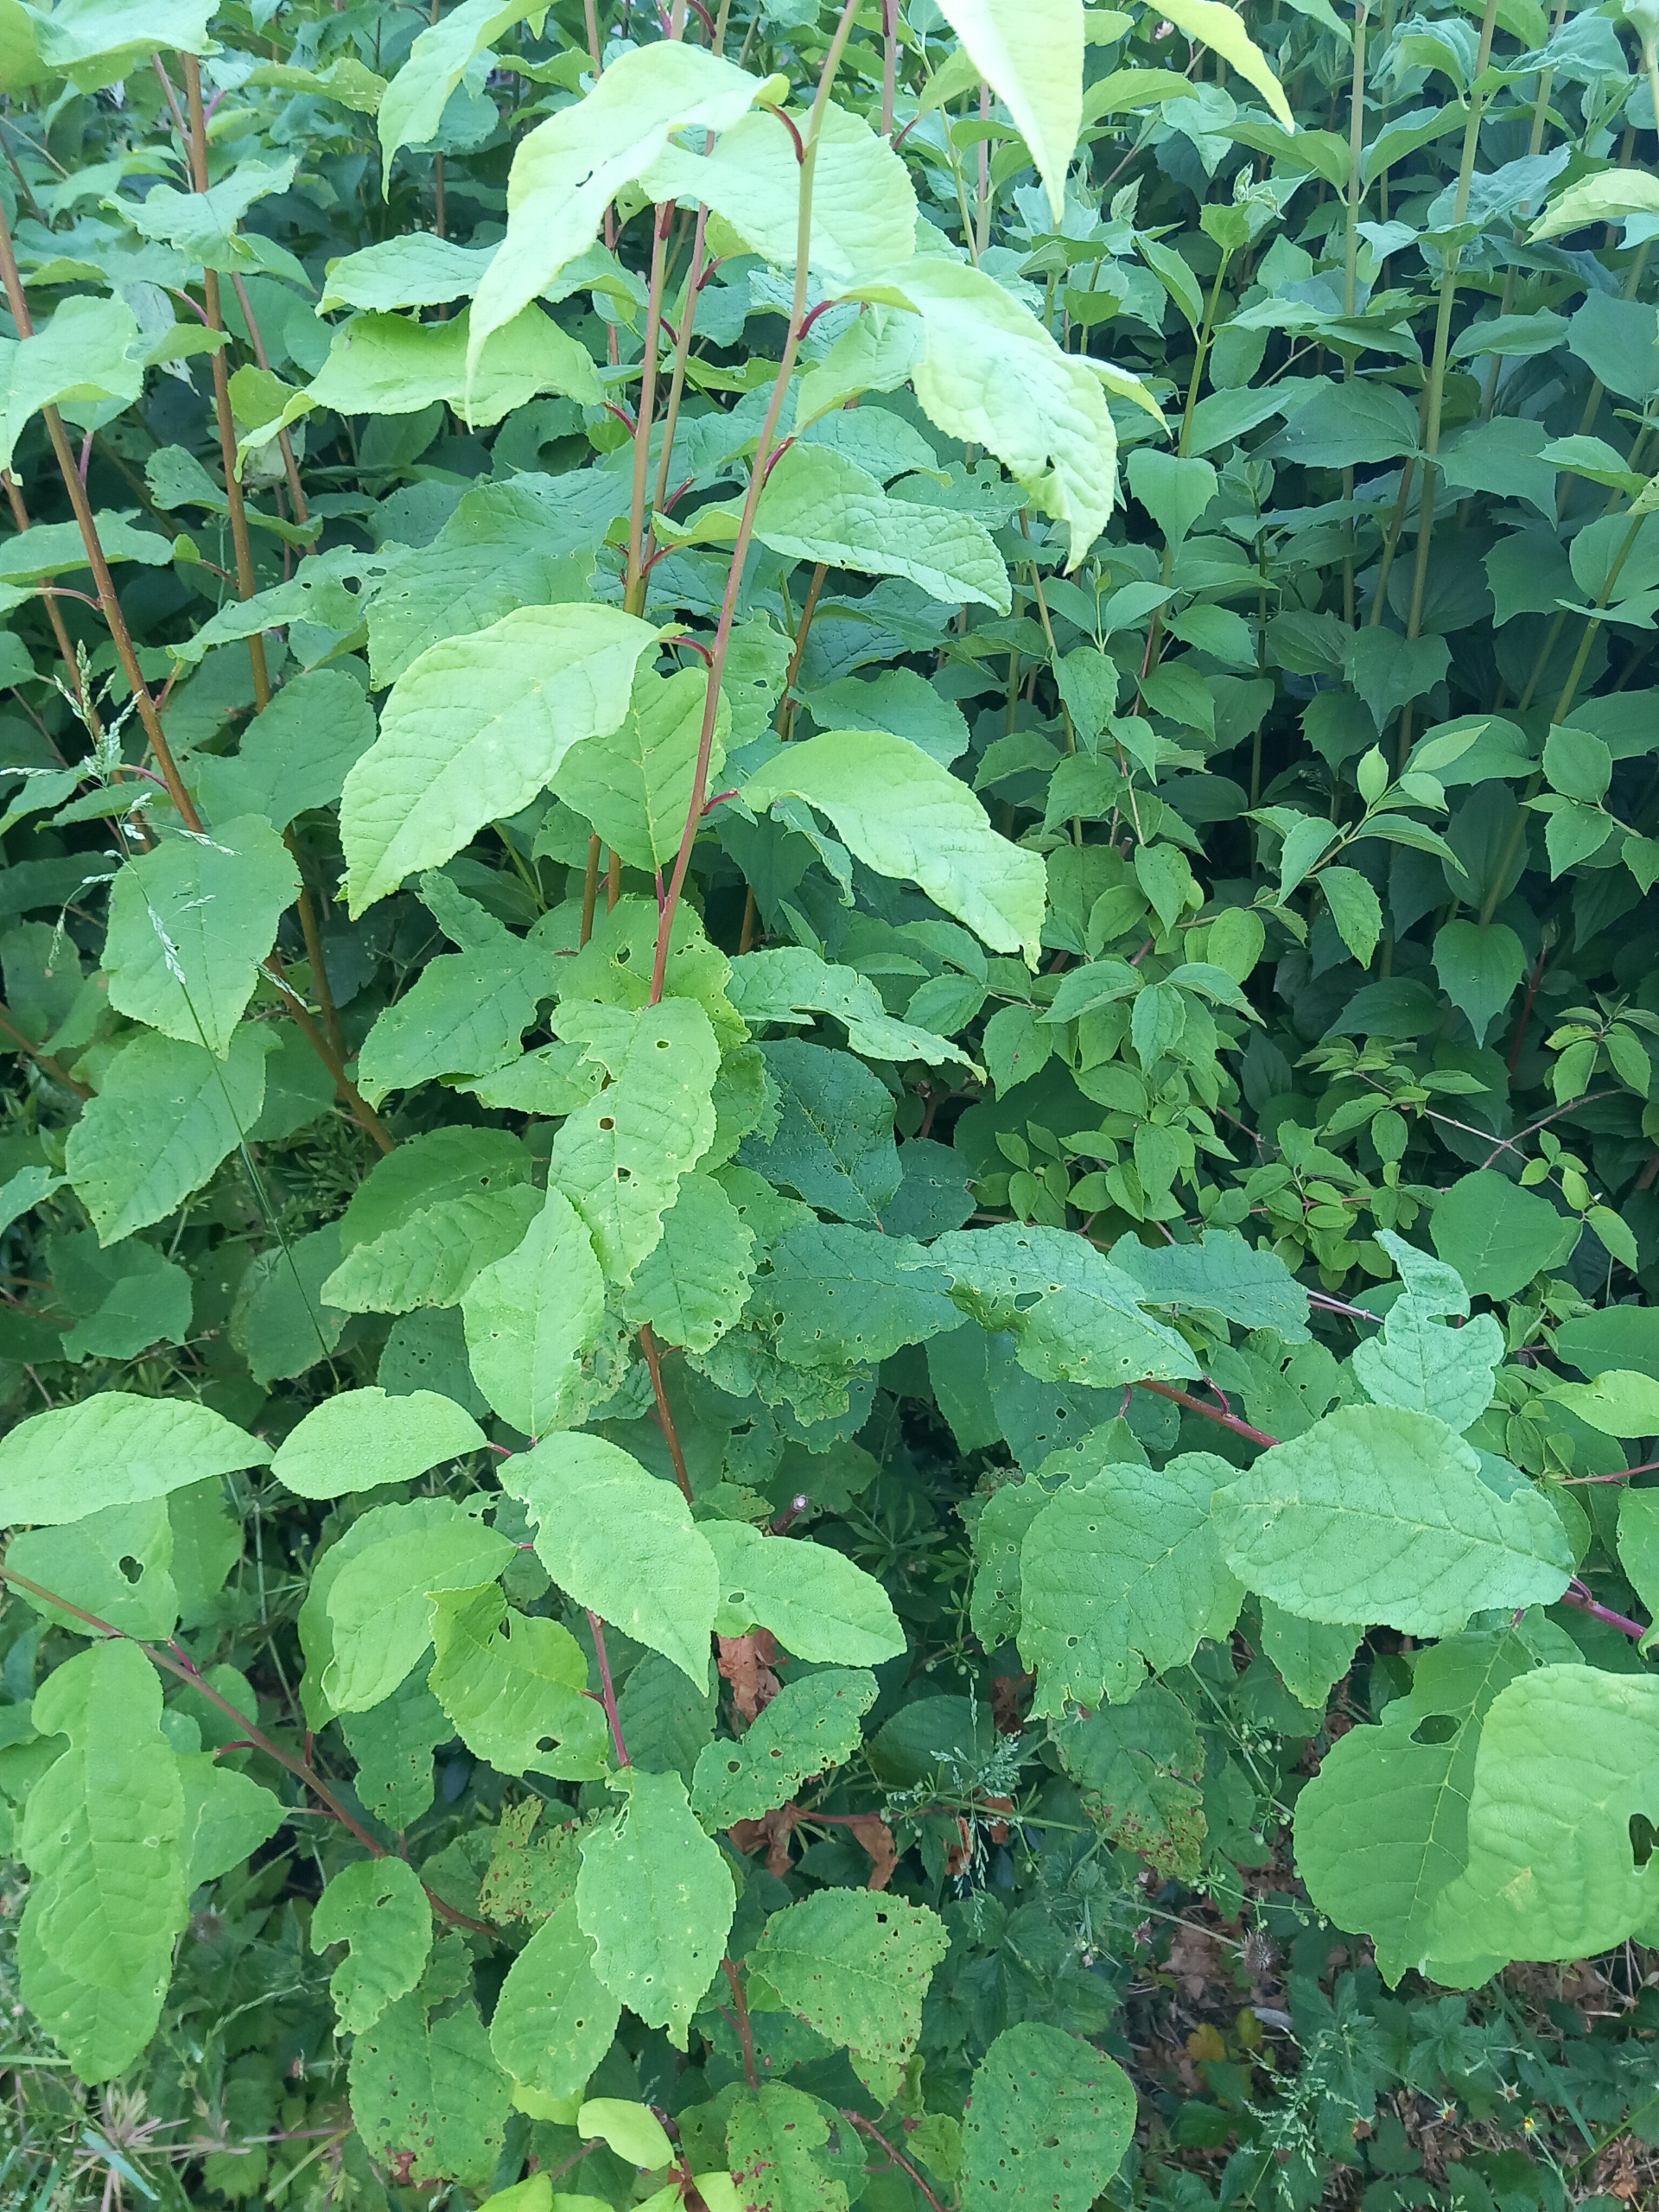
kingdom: Plantae
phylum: Tracheophyta
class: Magnoliopsida
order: Rosales
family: Rosaceae
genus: Prunus
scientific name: Prunus padus
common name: Almindelig hæg
